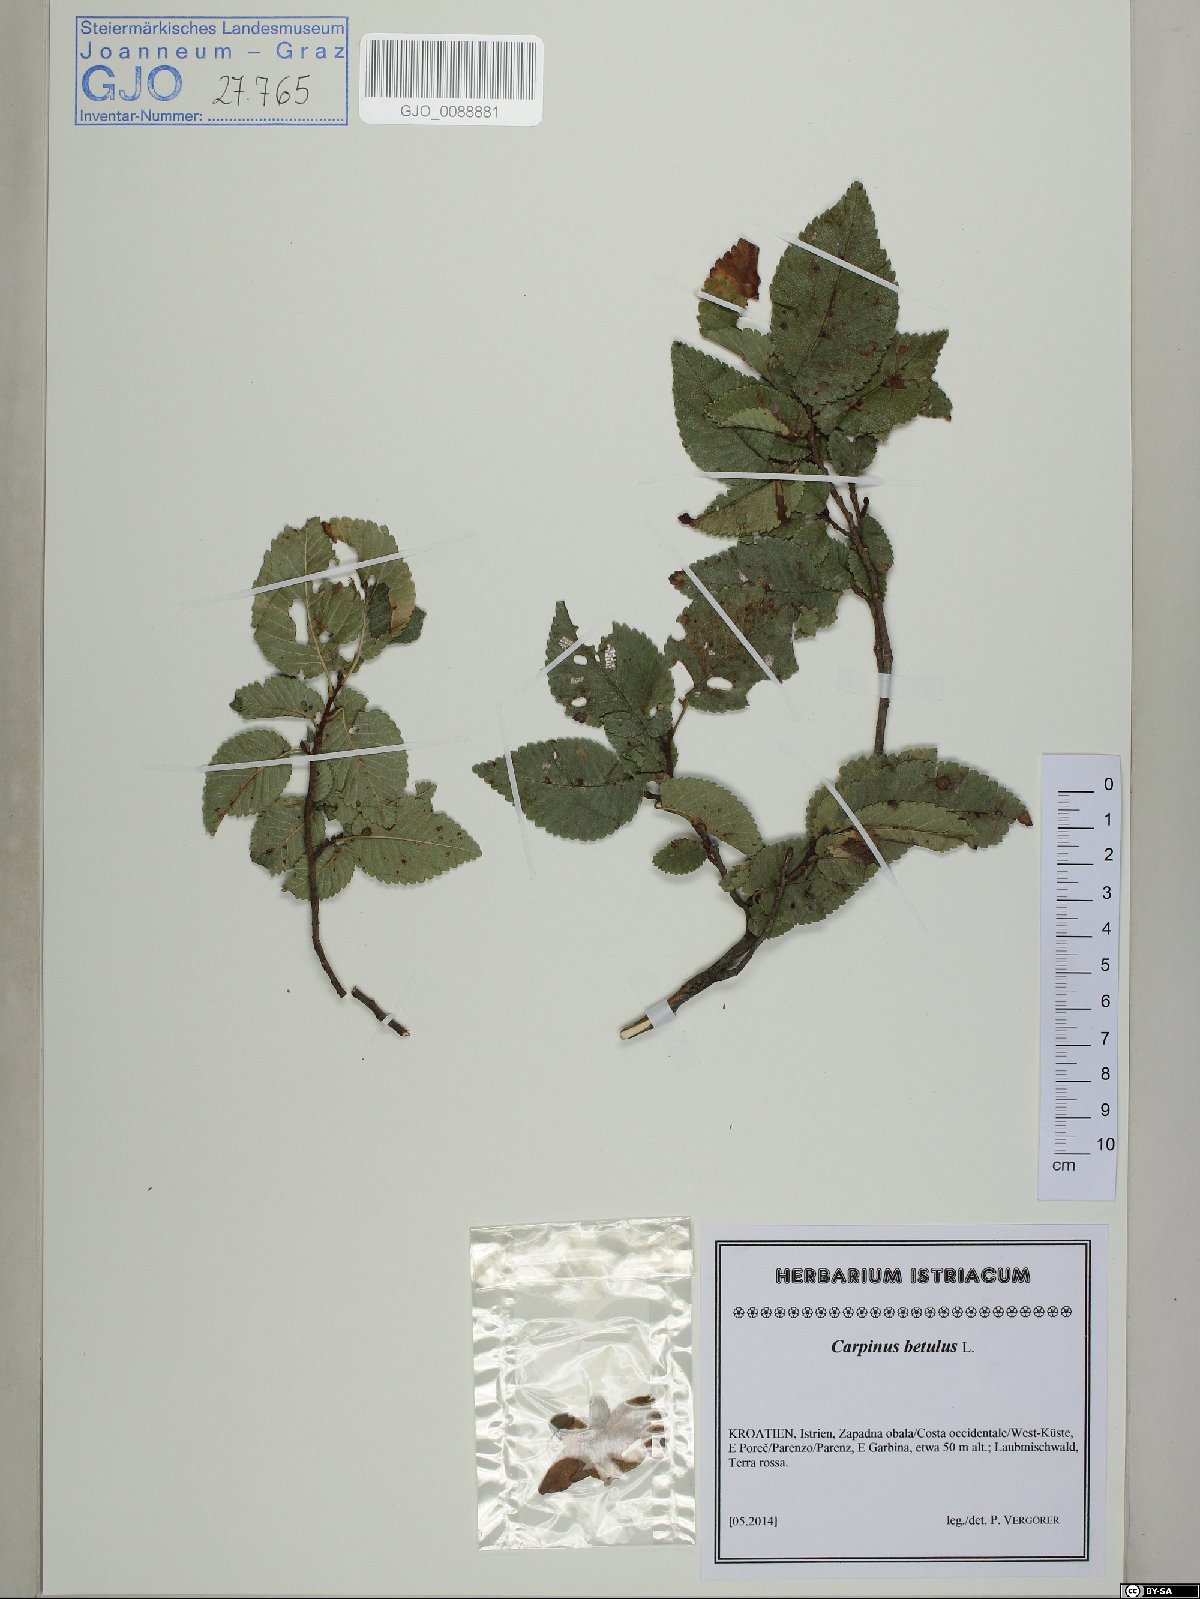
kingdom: Plantae
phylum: Tracheophyta
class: Magnoliopsida
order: Fagales
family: Betulaceae
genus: Carpinus
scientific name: Carpinus betulus
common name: Hornbeam
